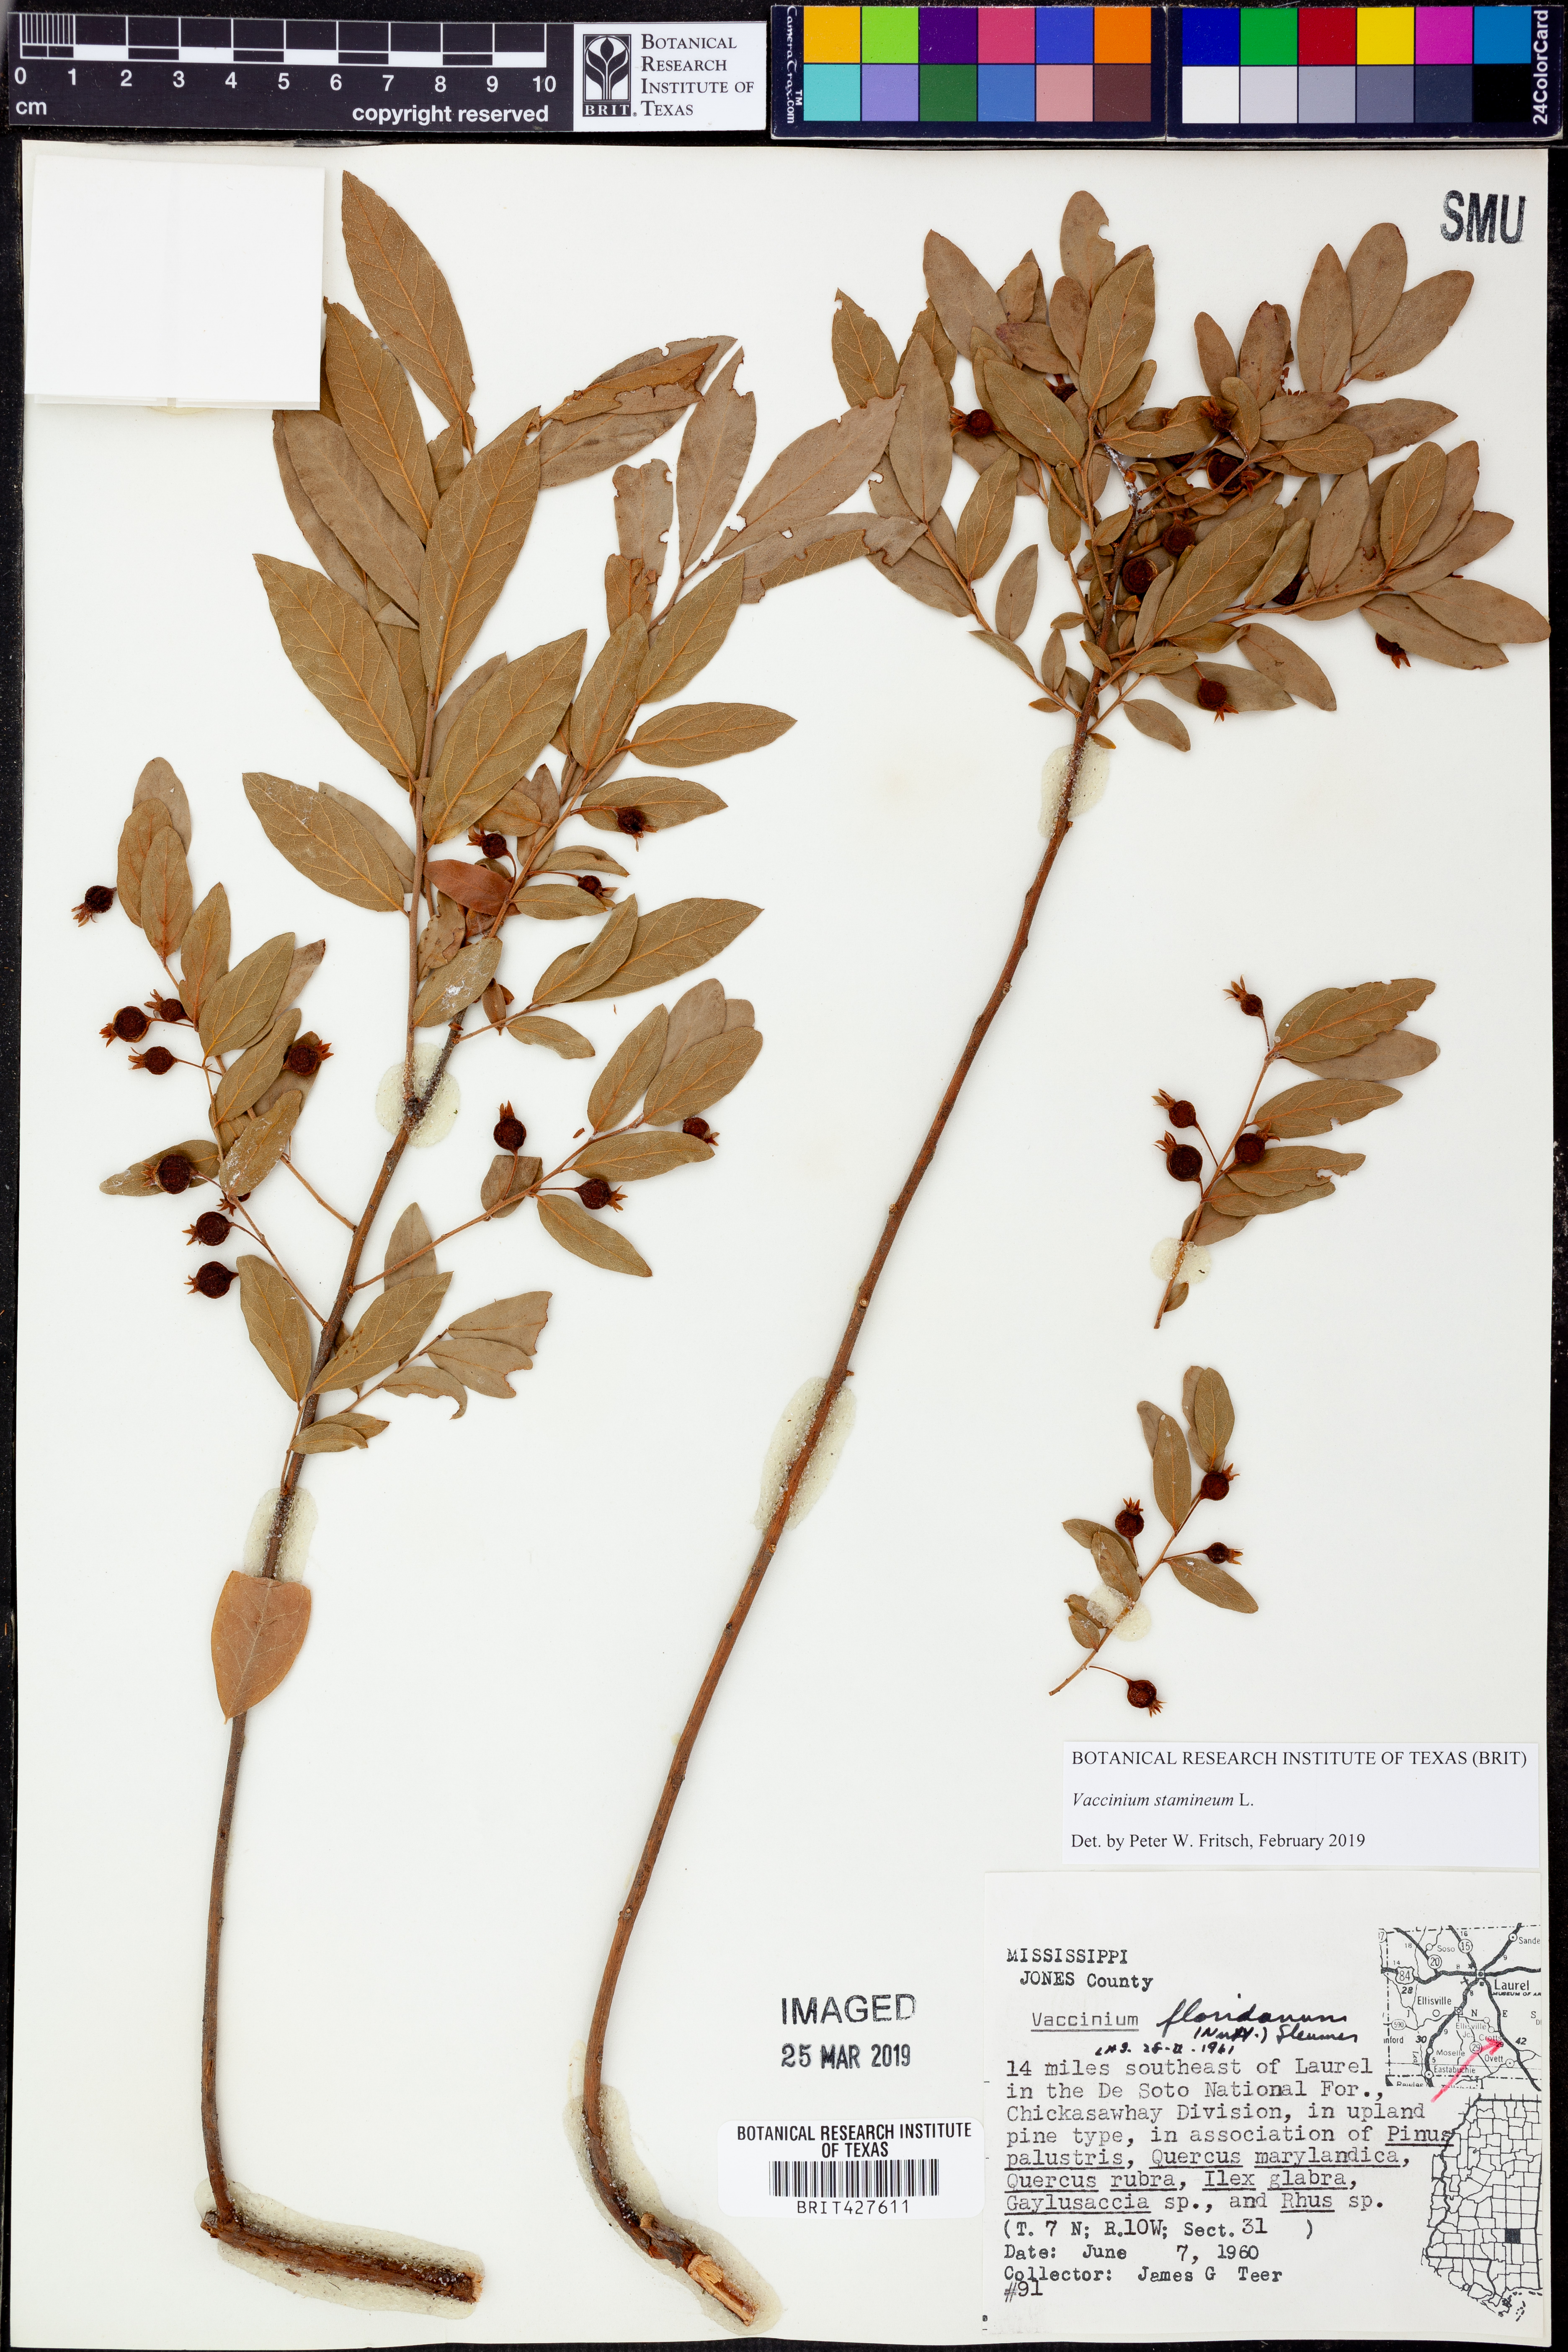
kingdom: Plantae
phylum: Tracheophyta
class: Magnoliopsida
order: Ericales
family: Ericaceae
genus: Vaccinium
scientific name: Vaccinium stamineum
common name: Deerberry
